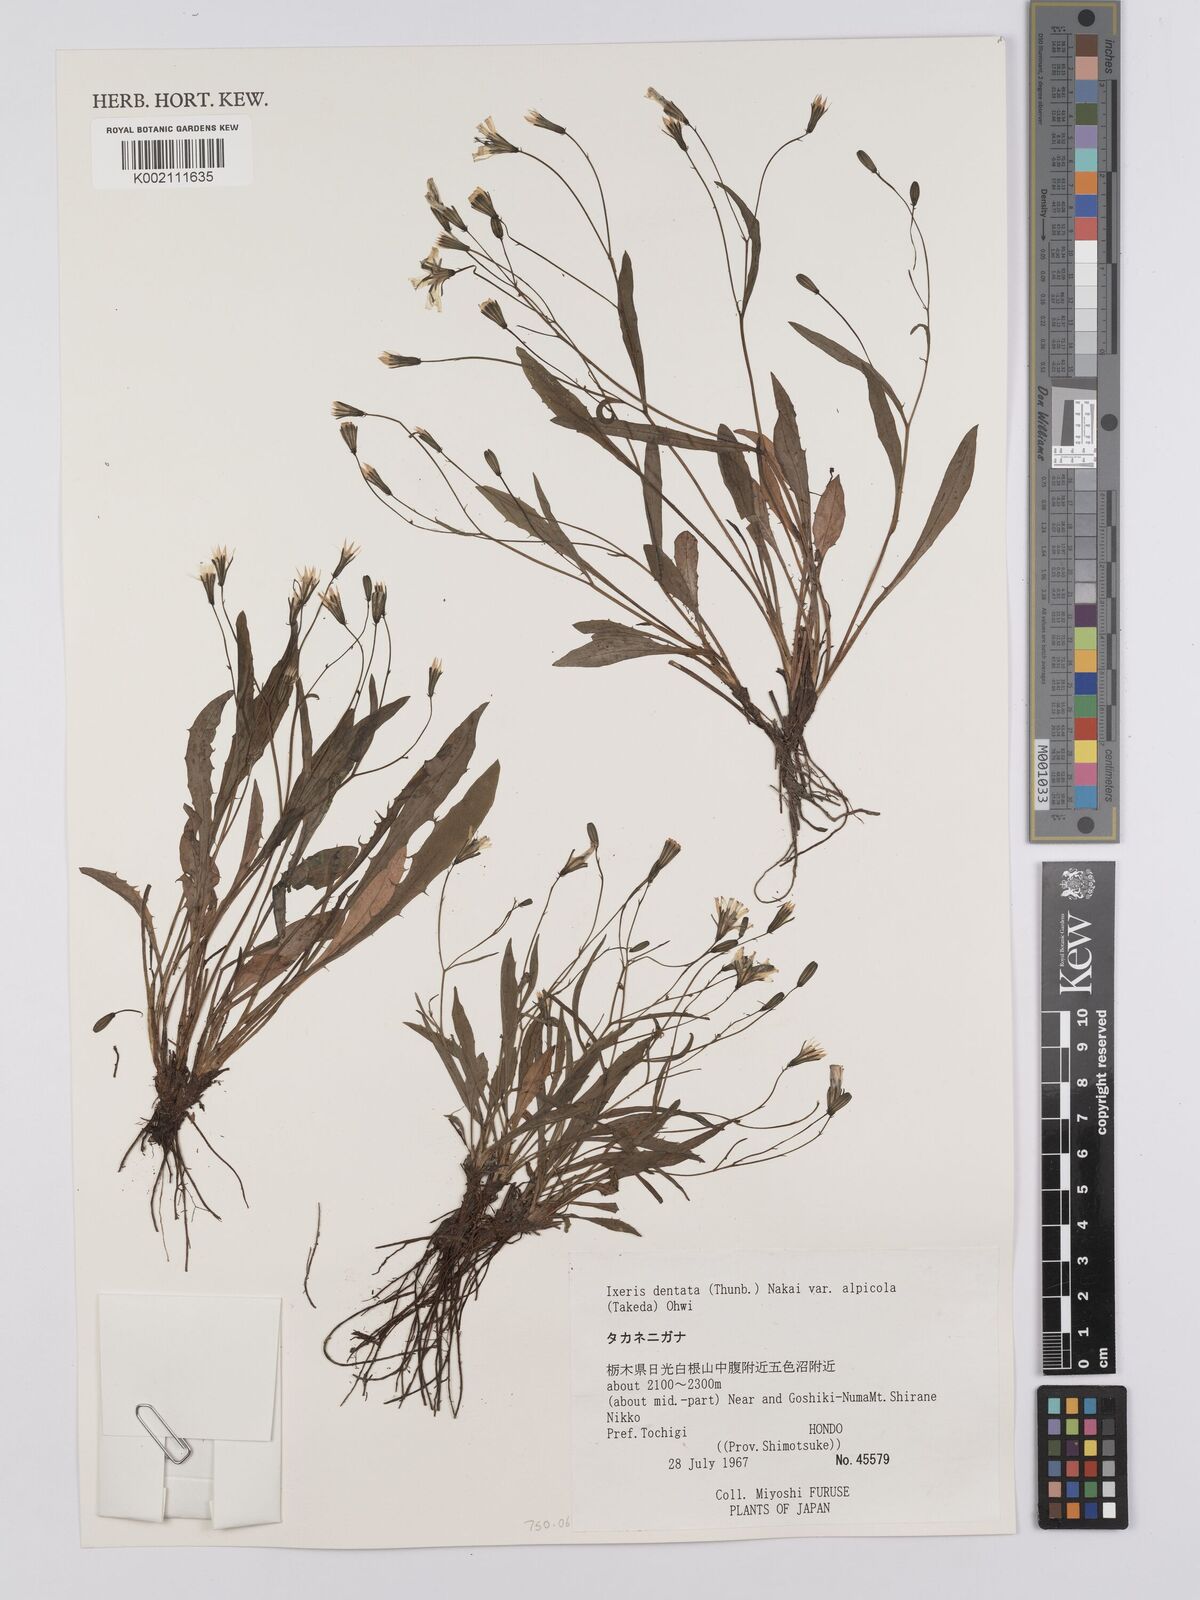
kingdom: Plantae
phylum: Tracheophyta
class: Magnoliopsida
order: Asterales
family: Asteraceae
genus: Ixeridium
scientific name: Ixeridium alpicola
